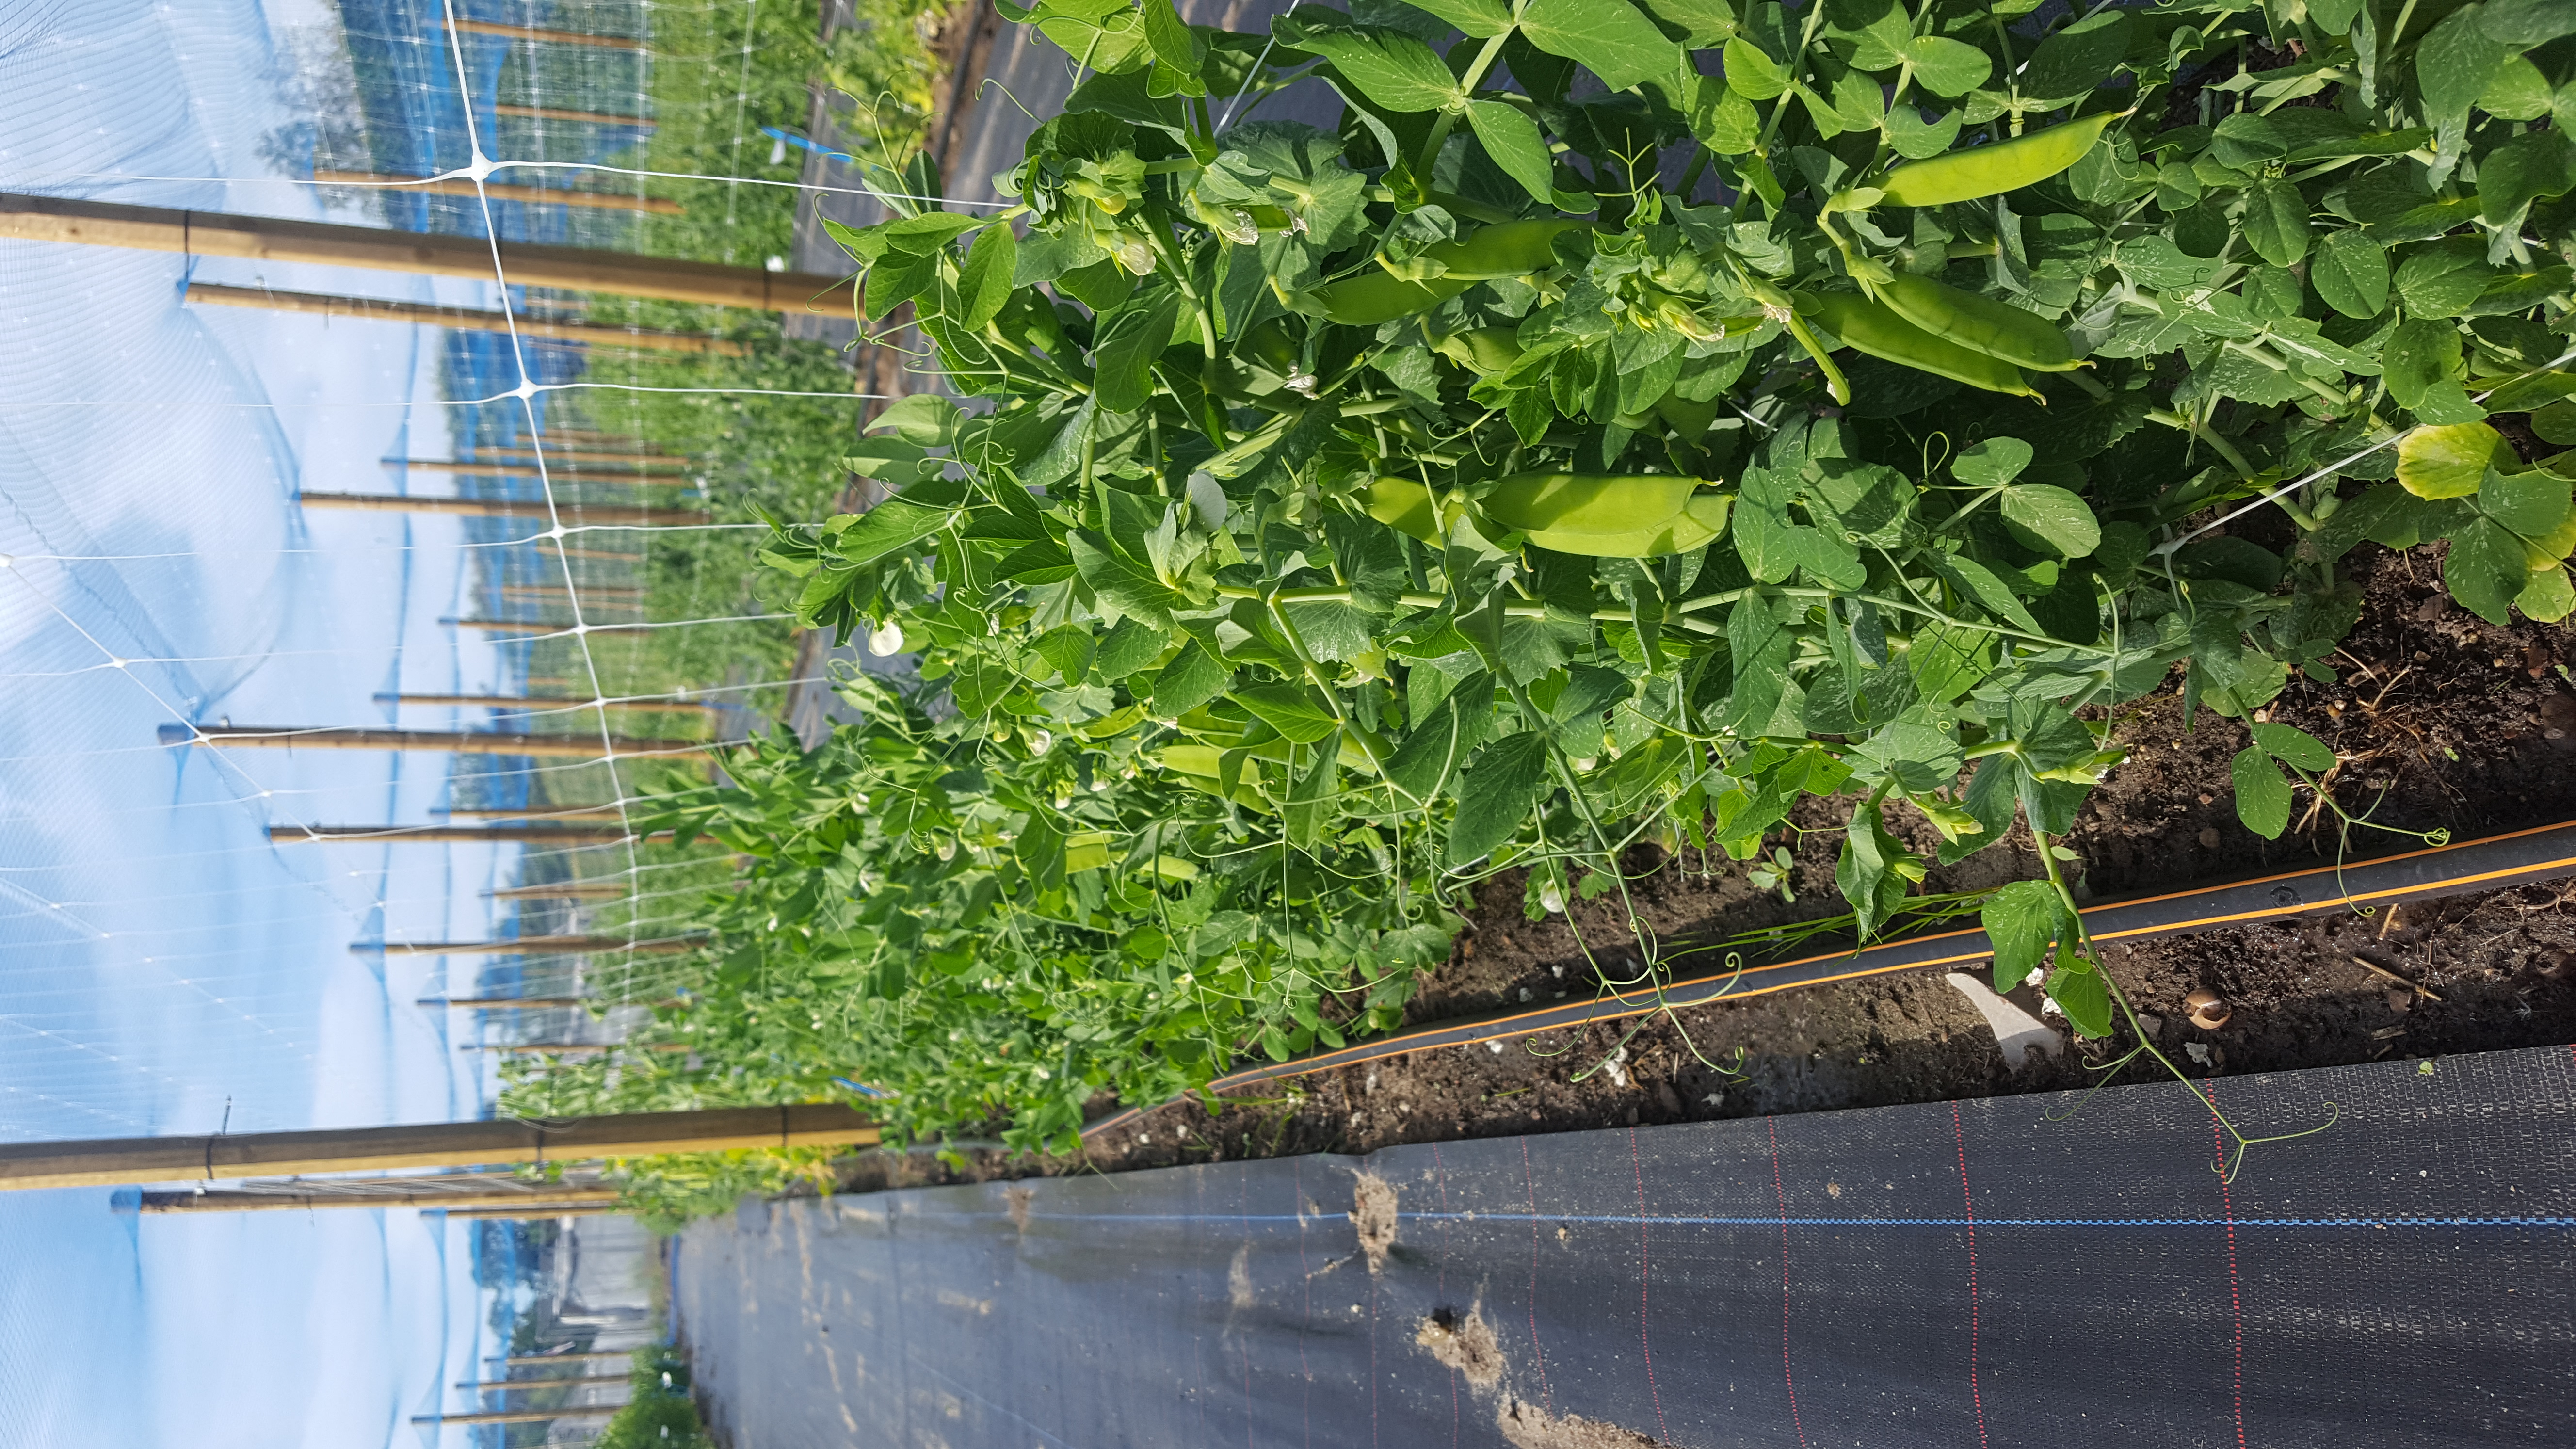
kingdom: Plantae
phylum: Tracheophyta
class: Magnoliopsida
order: Fabales
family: Fabaceae
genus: Lathyrus
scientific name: Lathyrus oleraceus
